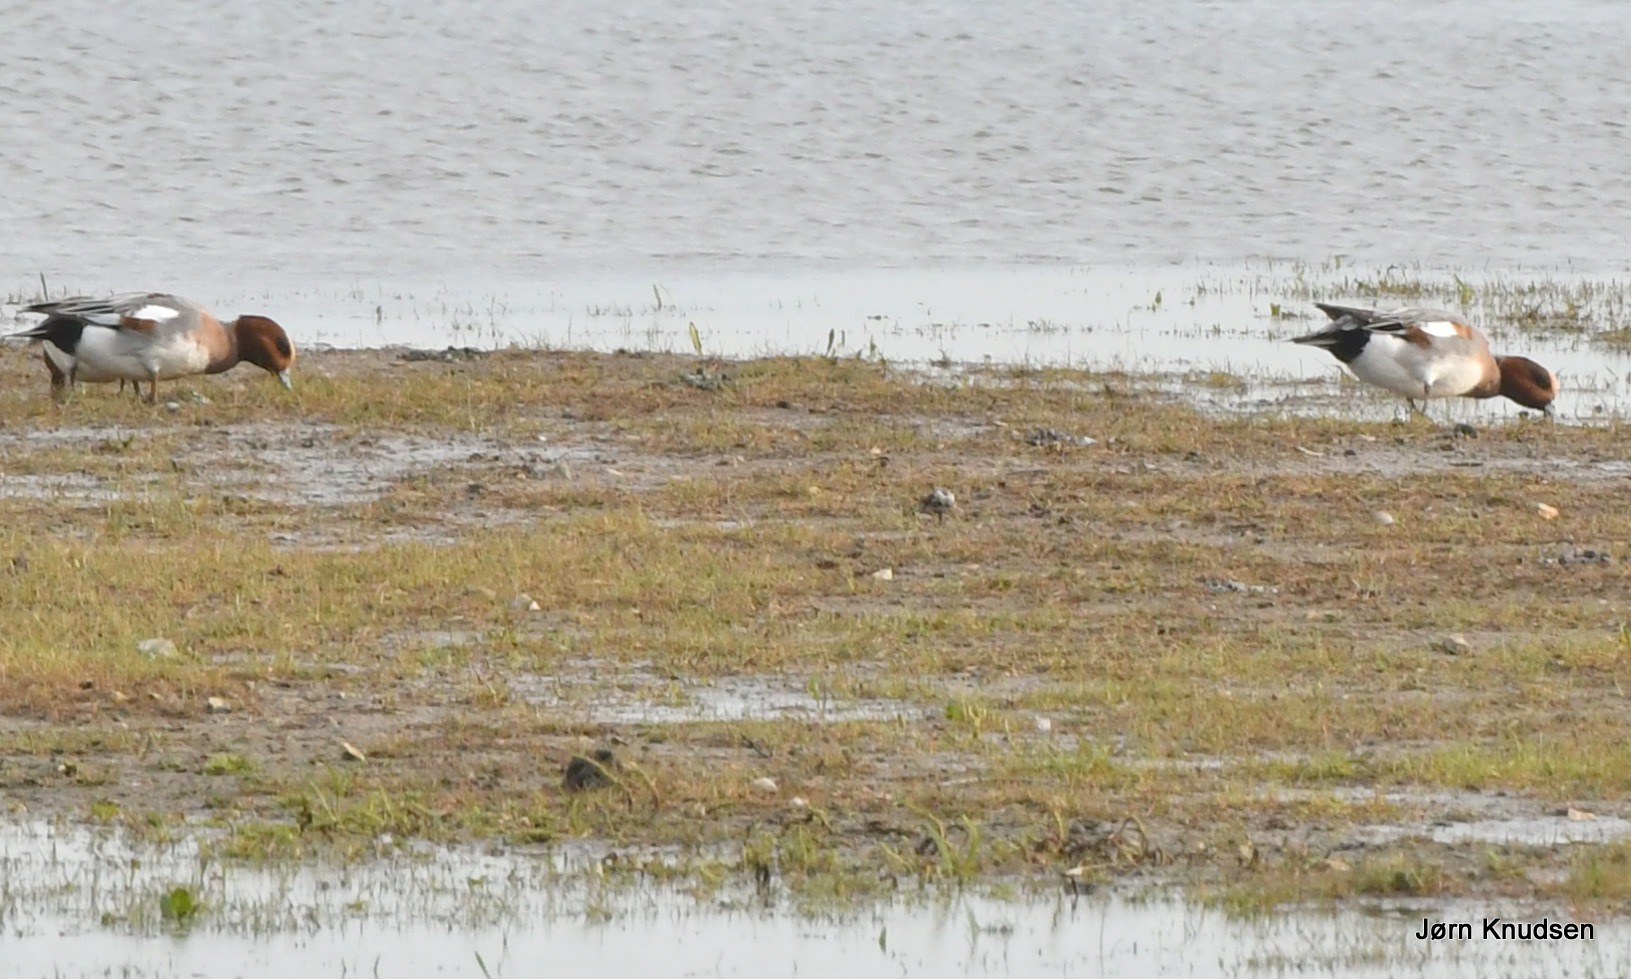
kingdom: Animalia
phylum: Chordata
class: Aves
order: Anseriformes
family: Anatidae
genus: Mareca
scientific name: Mareca penelope
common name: Pibeand
